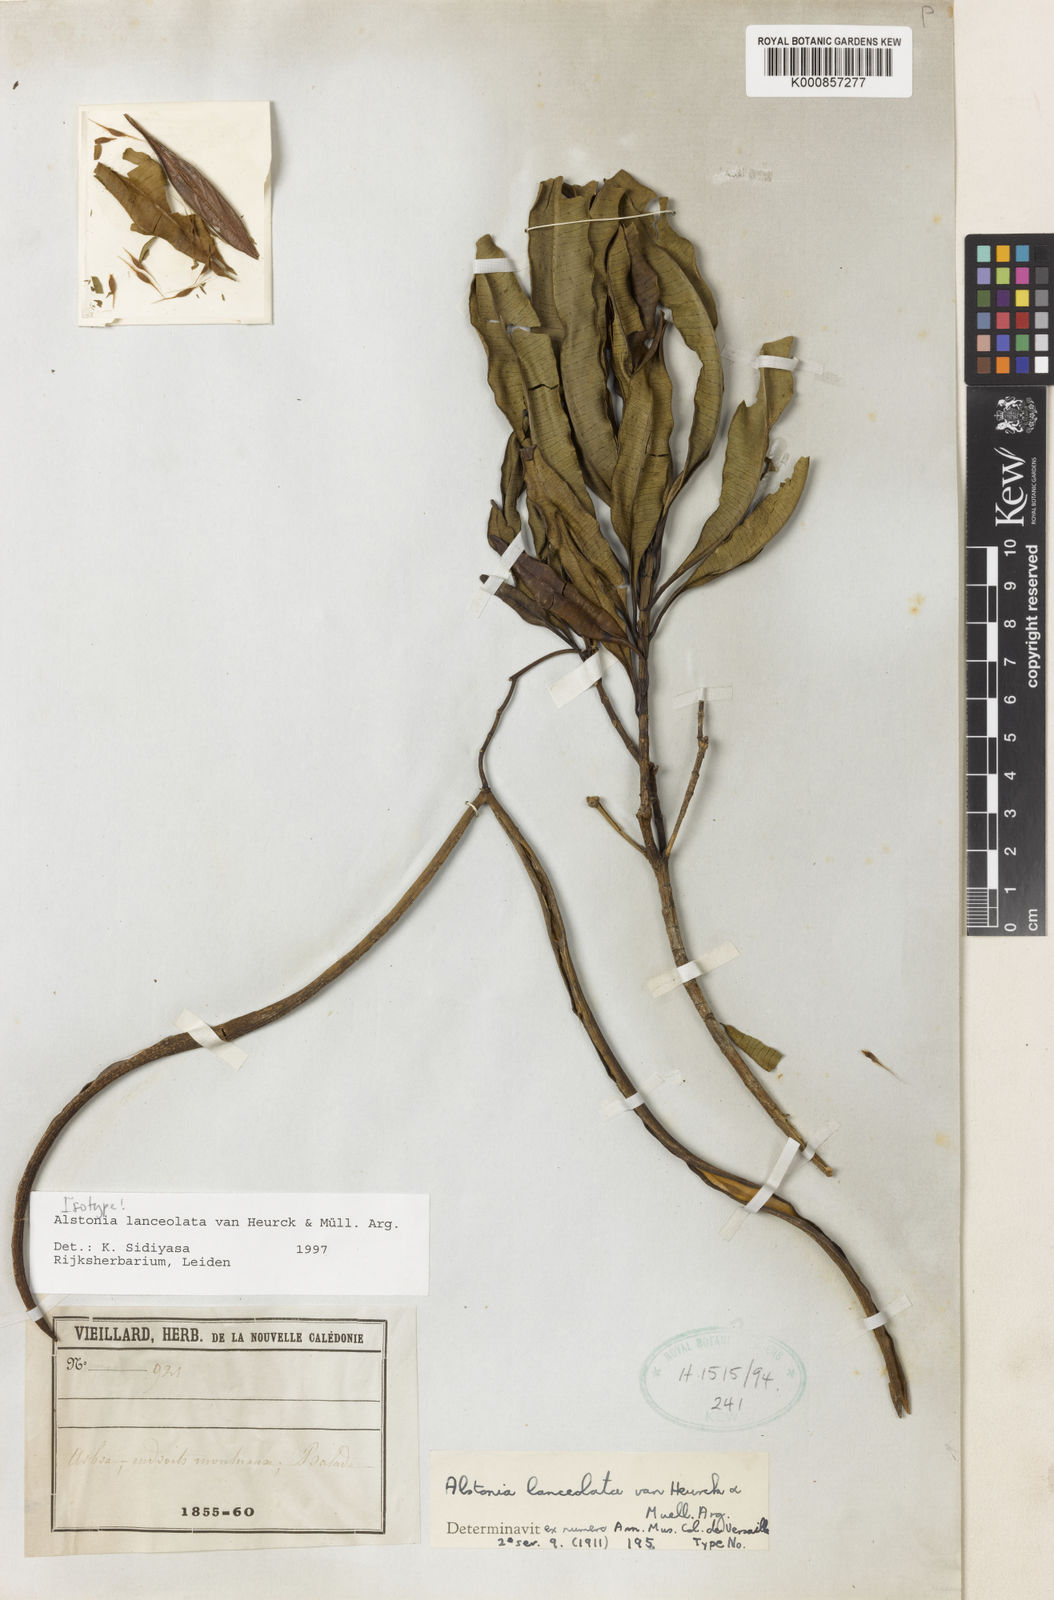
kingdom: Plantae
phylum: Tracheophyta
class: Magnoliopsida
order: Gentianales
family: Apocynaceae
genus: Alstonia
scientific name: Alstonia
